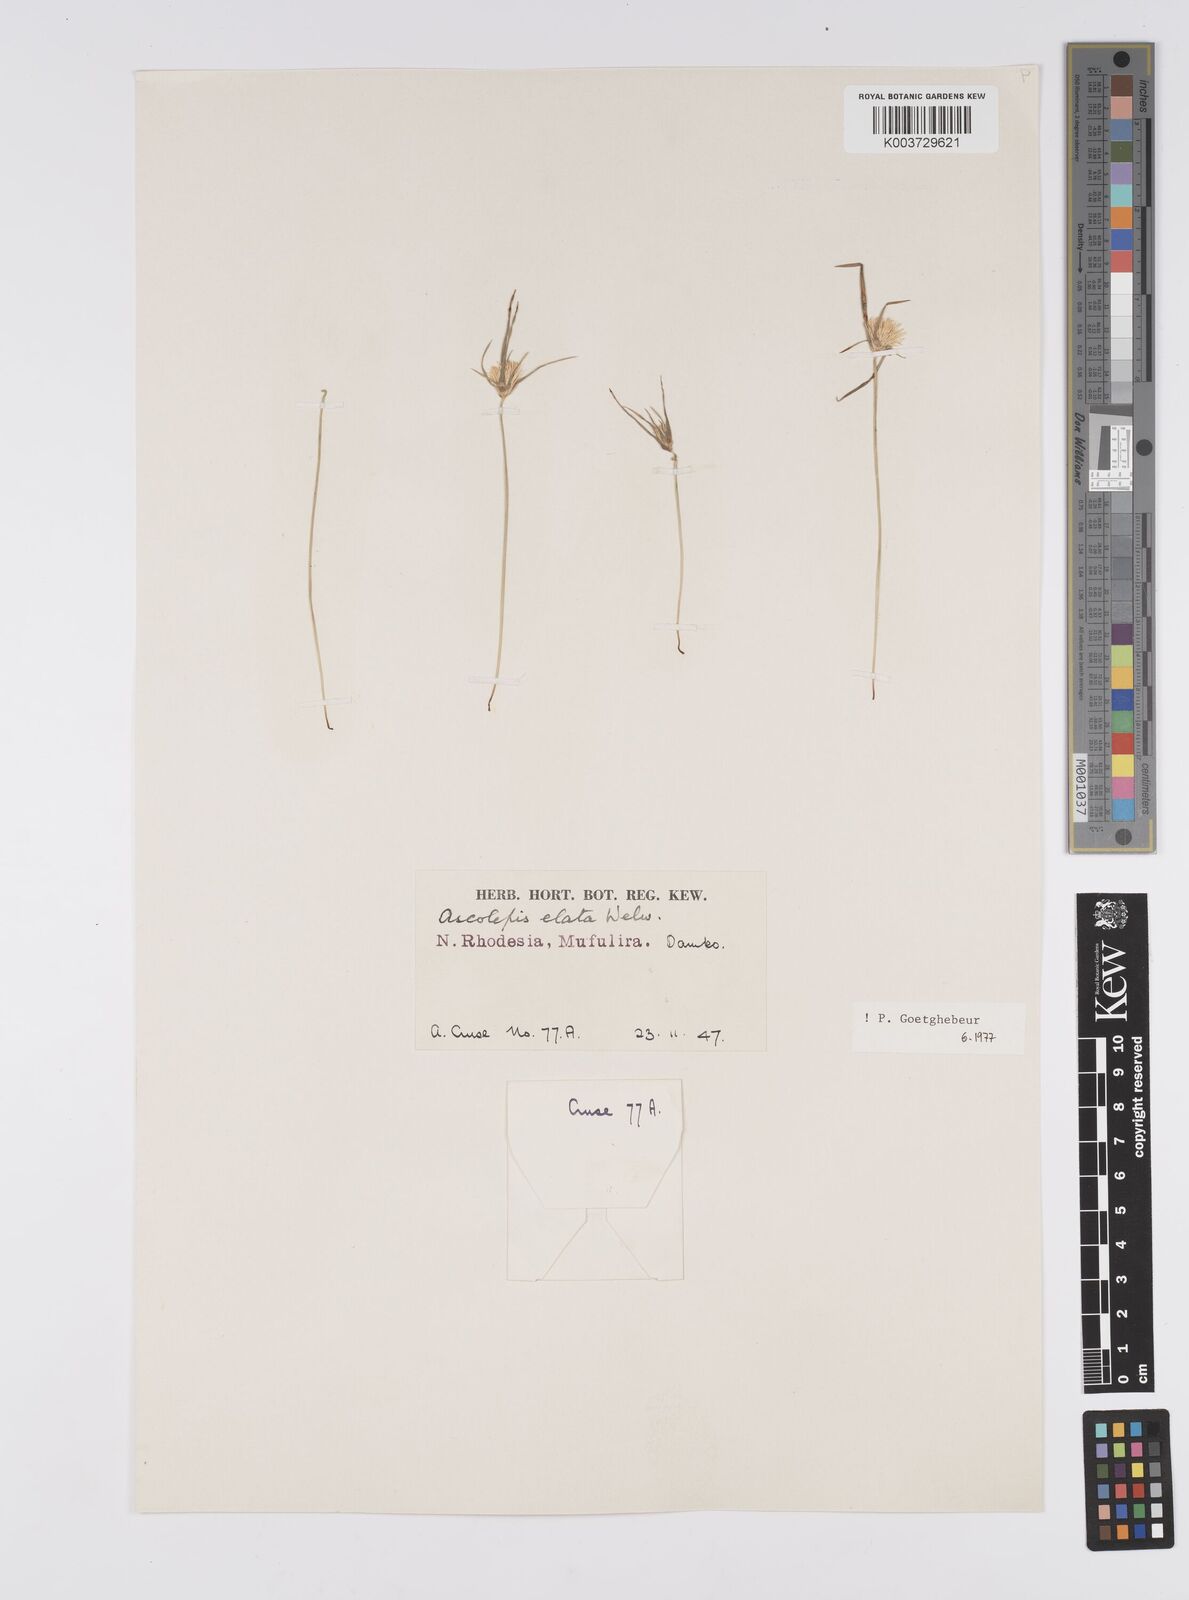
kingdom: Plantae
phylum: Tracheophyta
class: Liliopsida
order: Poales
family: Cyperaceae
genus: Cyperus
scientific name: Cyperus
